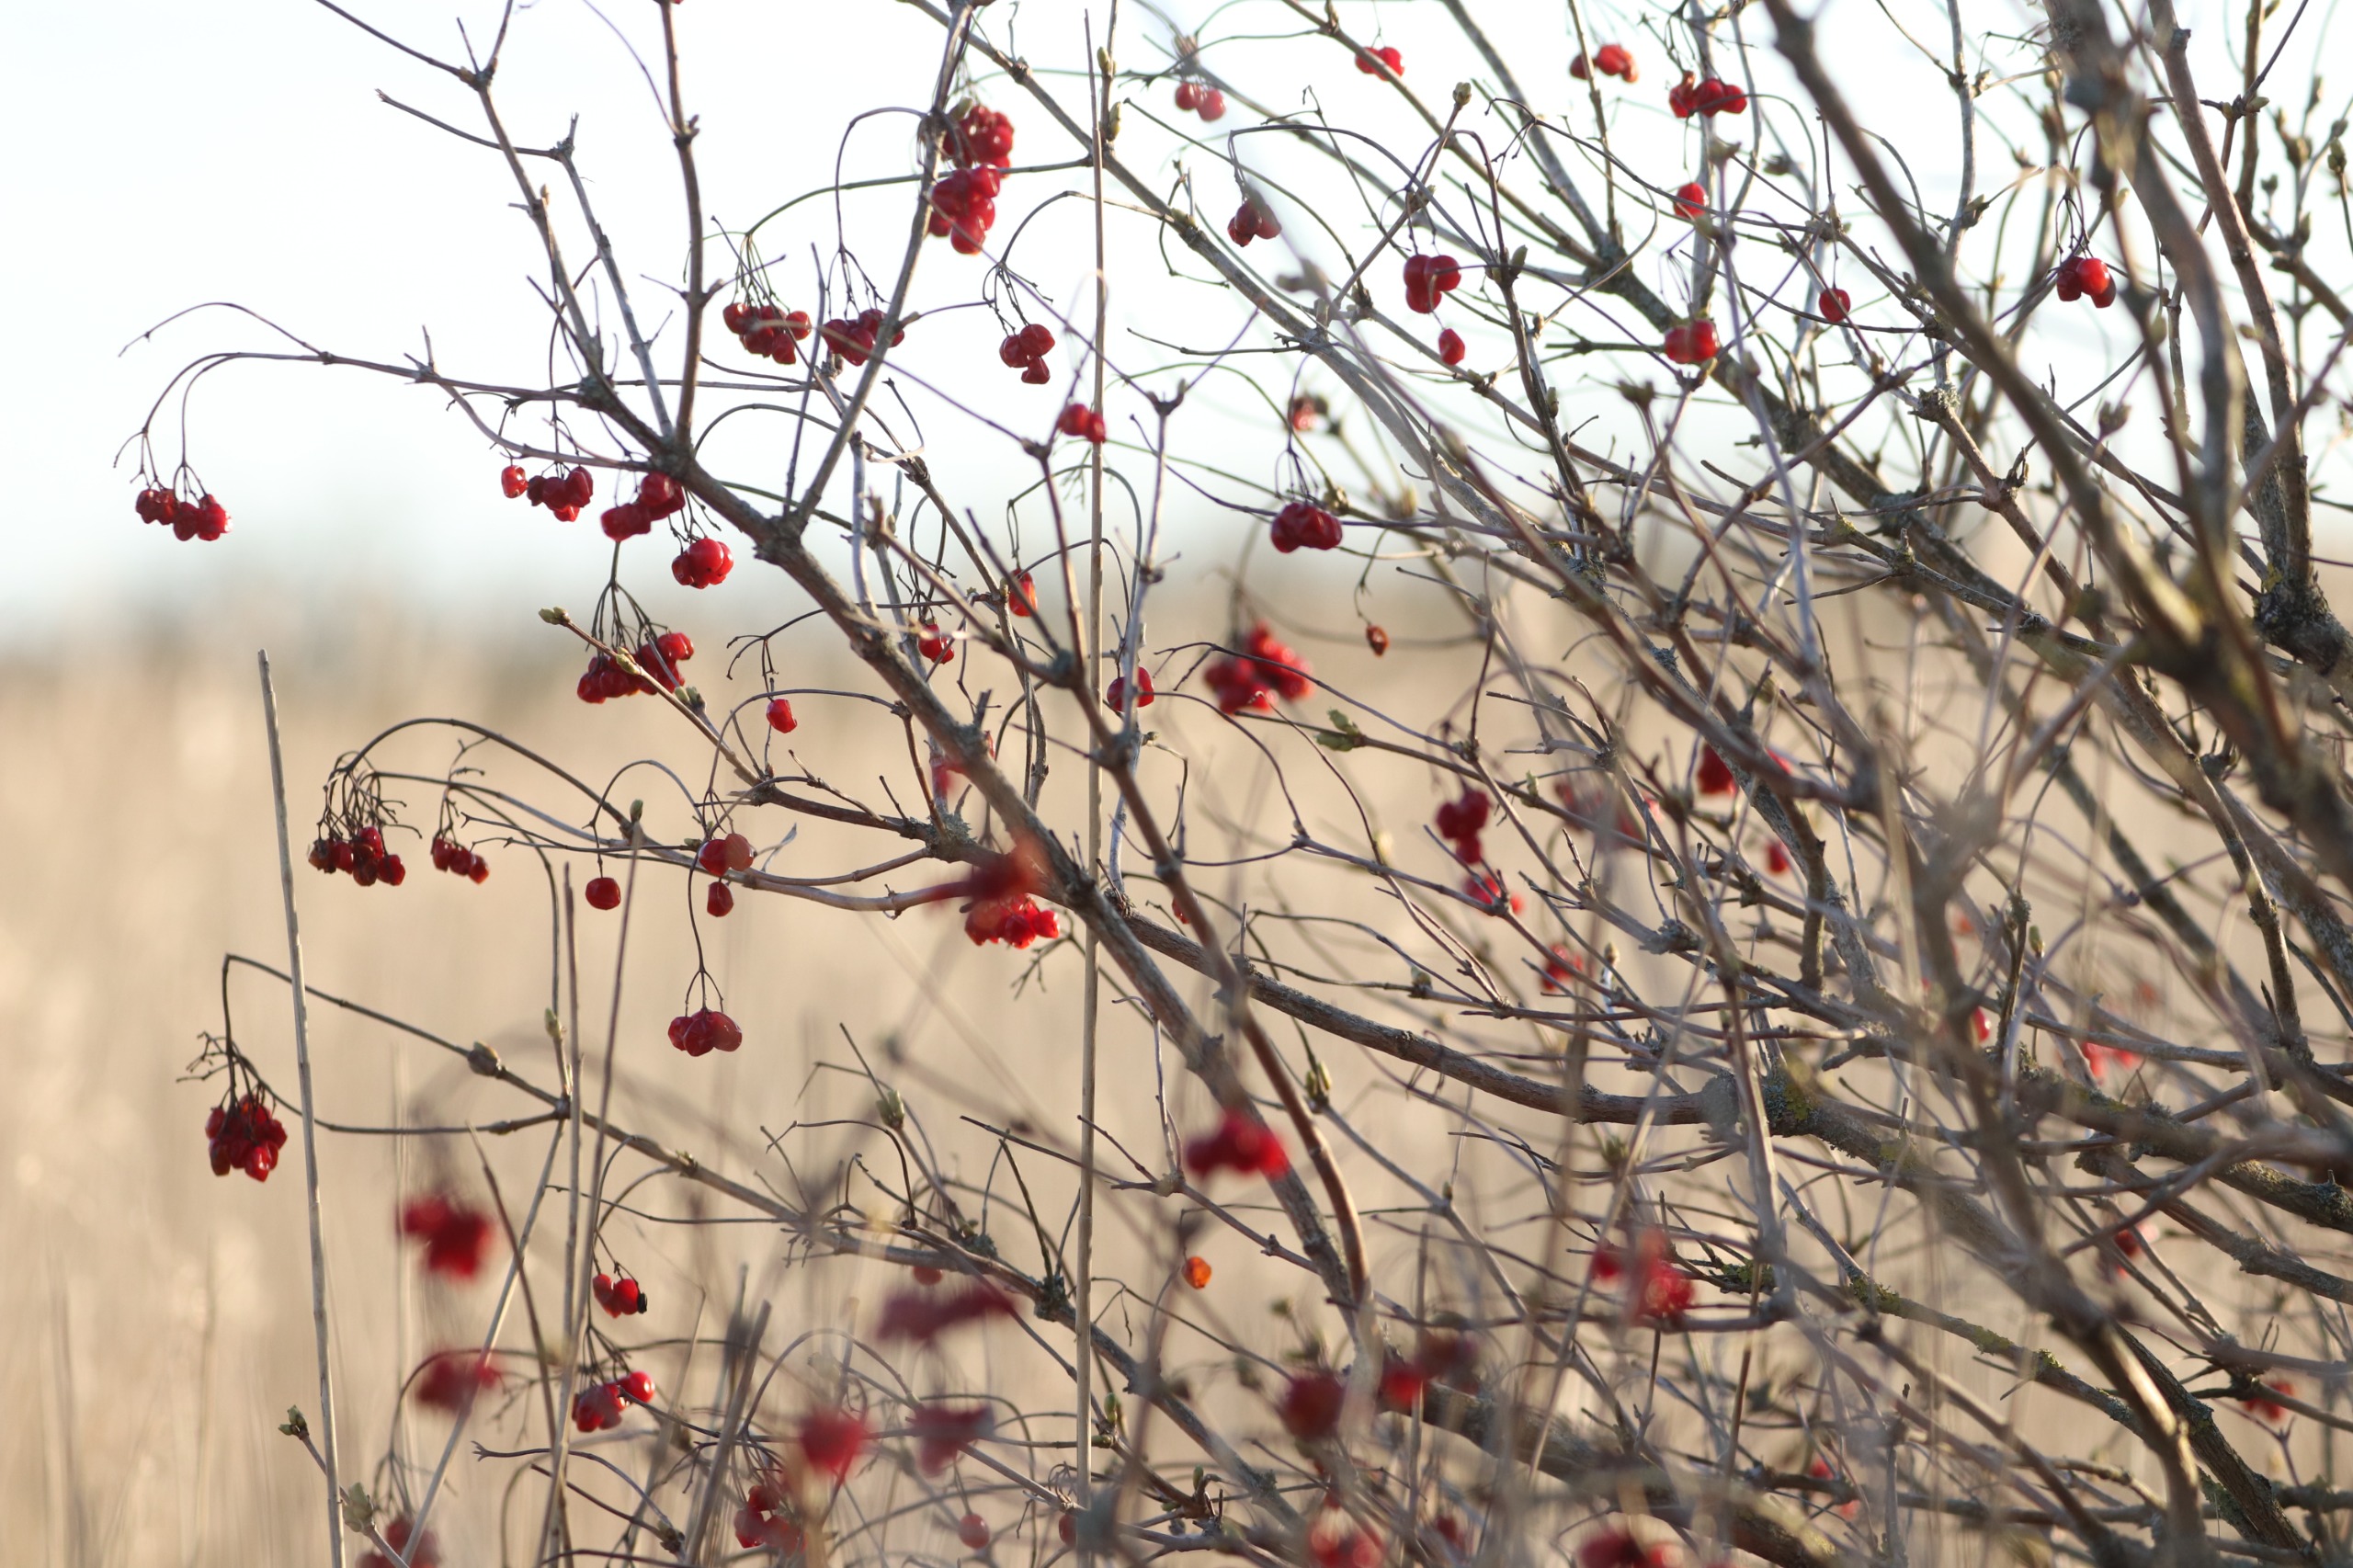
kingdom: Plantae
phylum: Tracheophyta
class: Magnoliopsida
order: Dipsacales
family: Viburnaceae
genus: Viburnum
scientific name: Viburnum opulus
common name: Kvalkved
